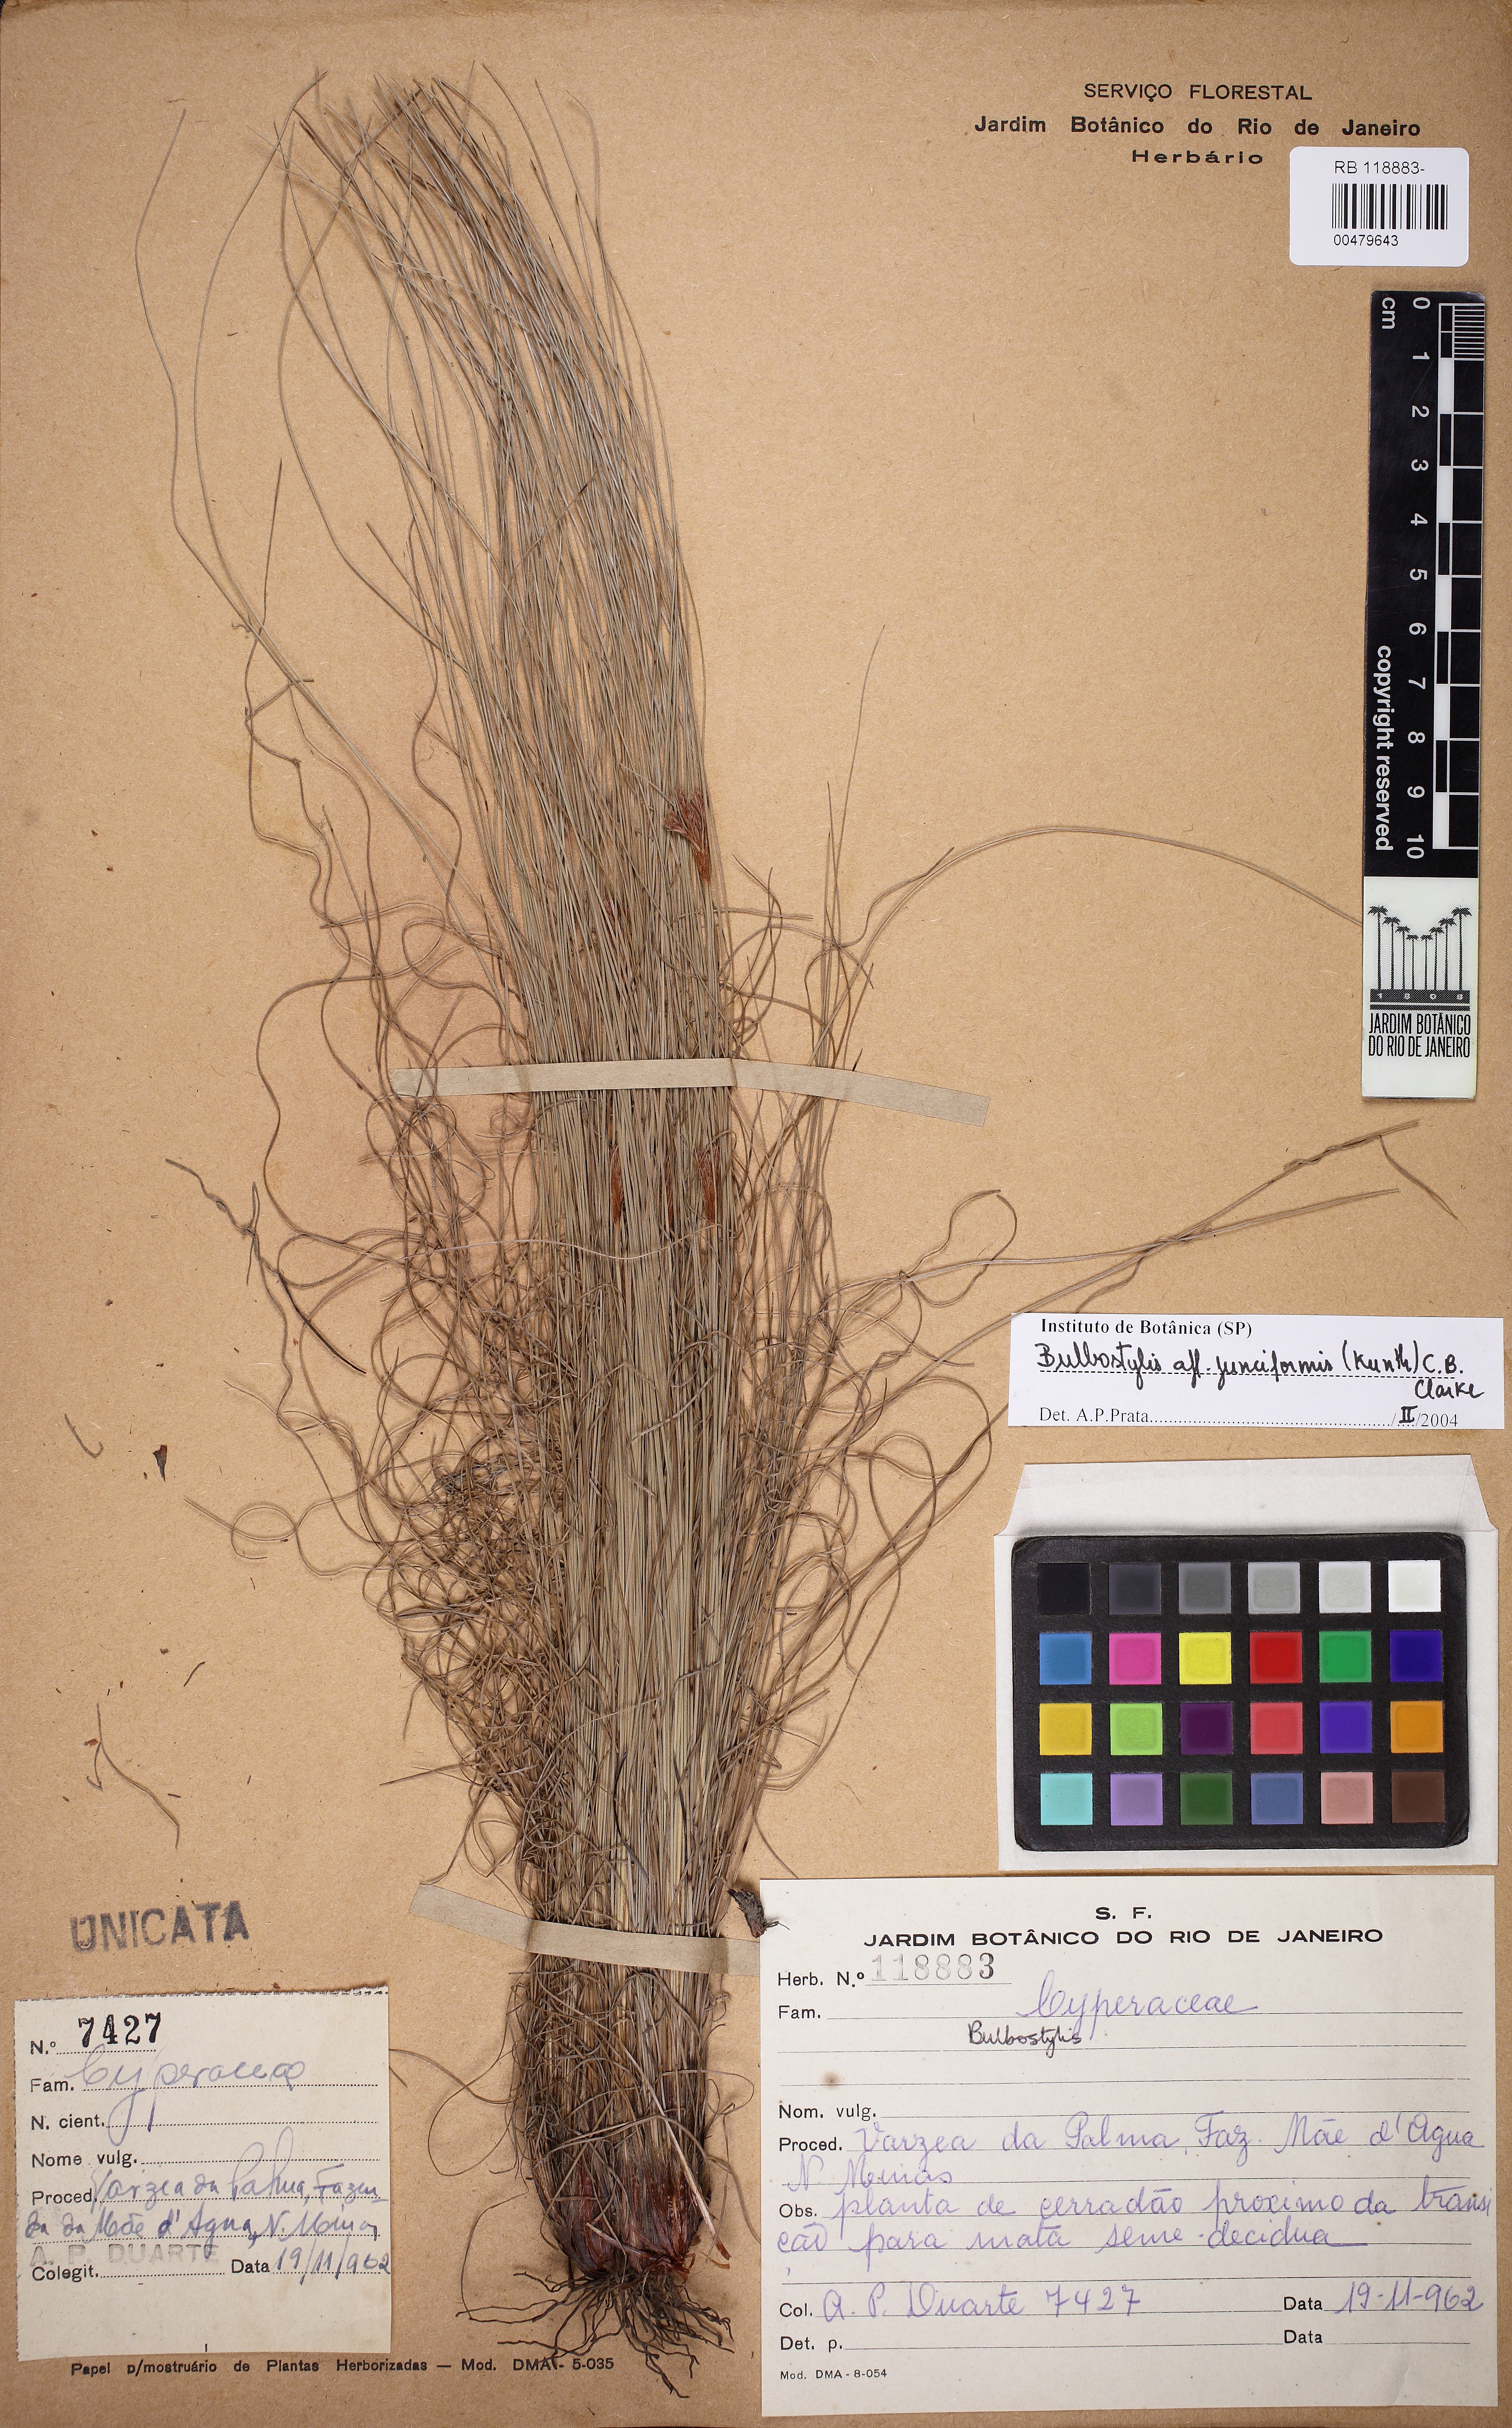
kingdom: Plantae
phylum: Tracheophyta
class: Liliopsida
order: Poales
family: Cyperaceae
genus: Bulbostylis
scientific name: Bulbostylis junciformis
